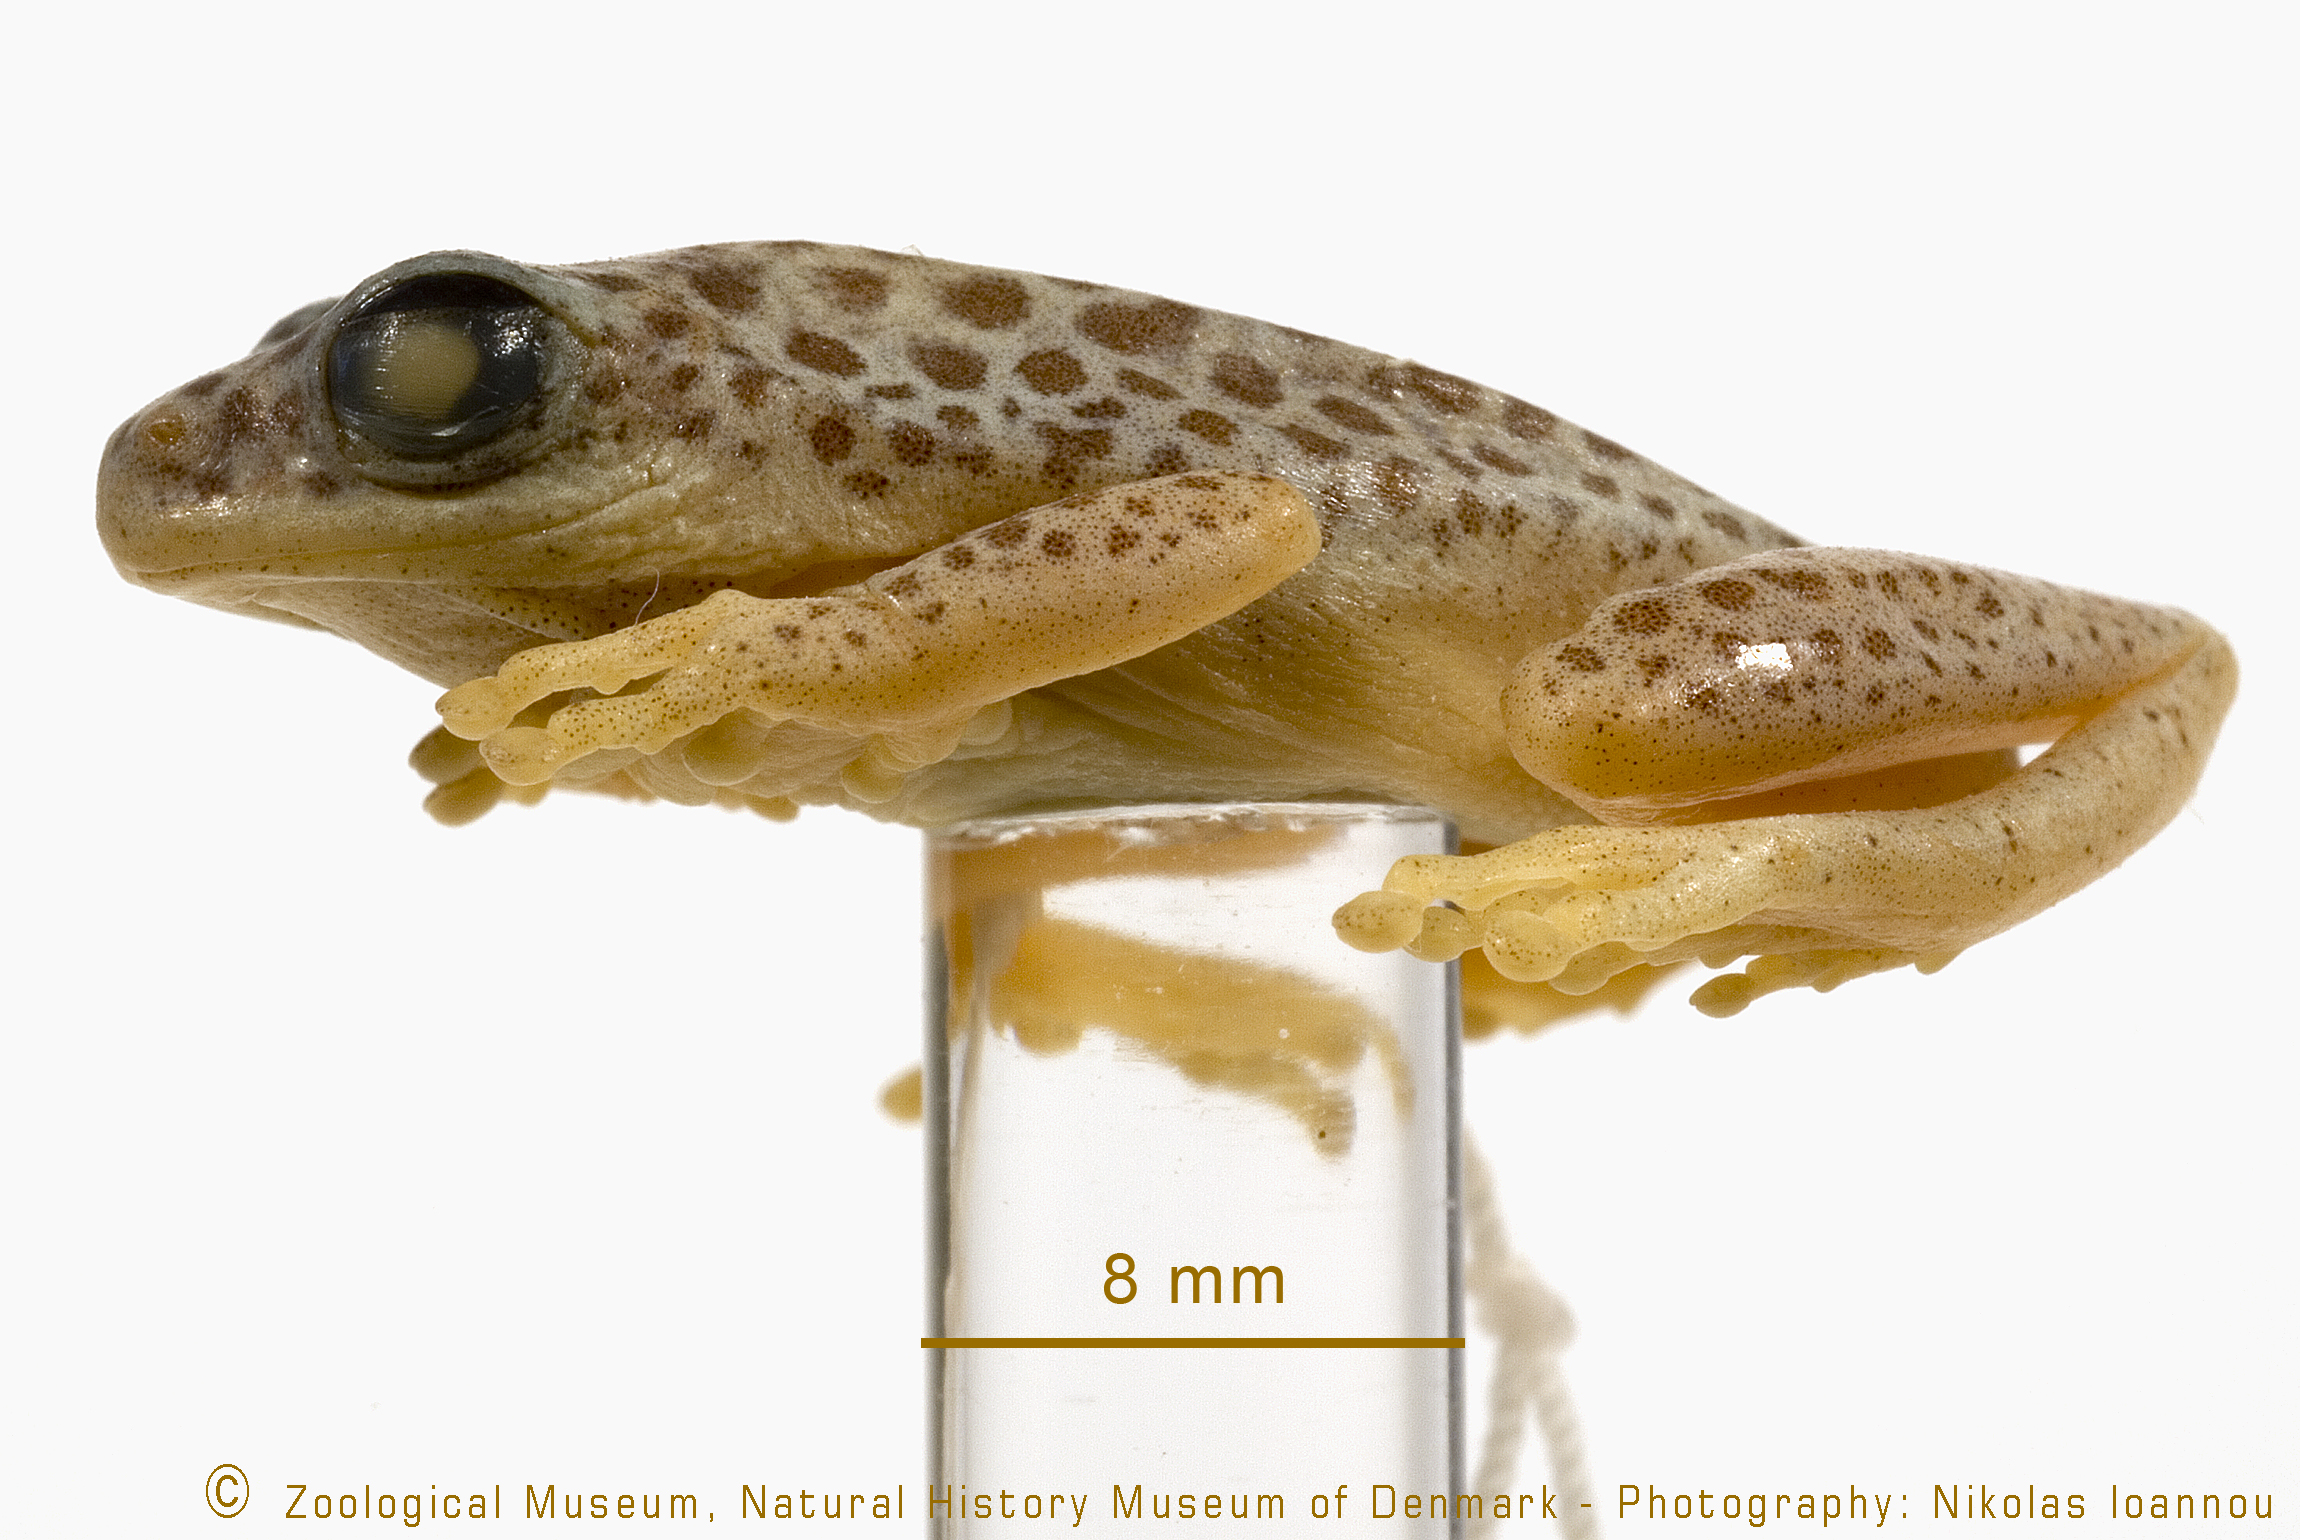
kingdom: Animalia
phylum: Chordata
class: Amphibia
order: Anura
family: Hyperoliidae
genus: Hyperolius
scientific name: Hyperolius viridiflavus
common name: Common reed frog
